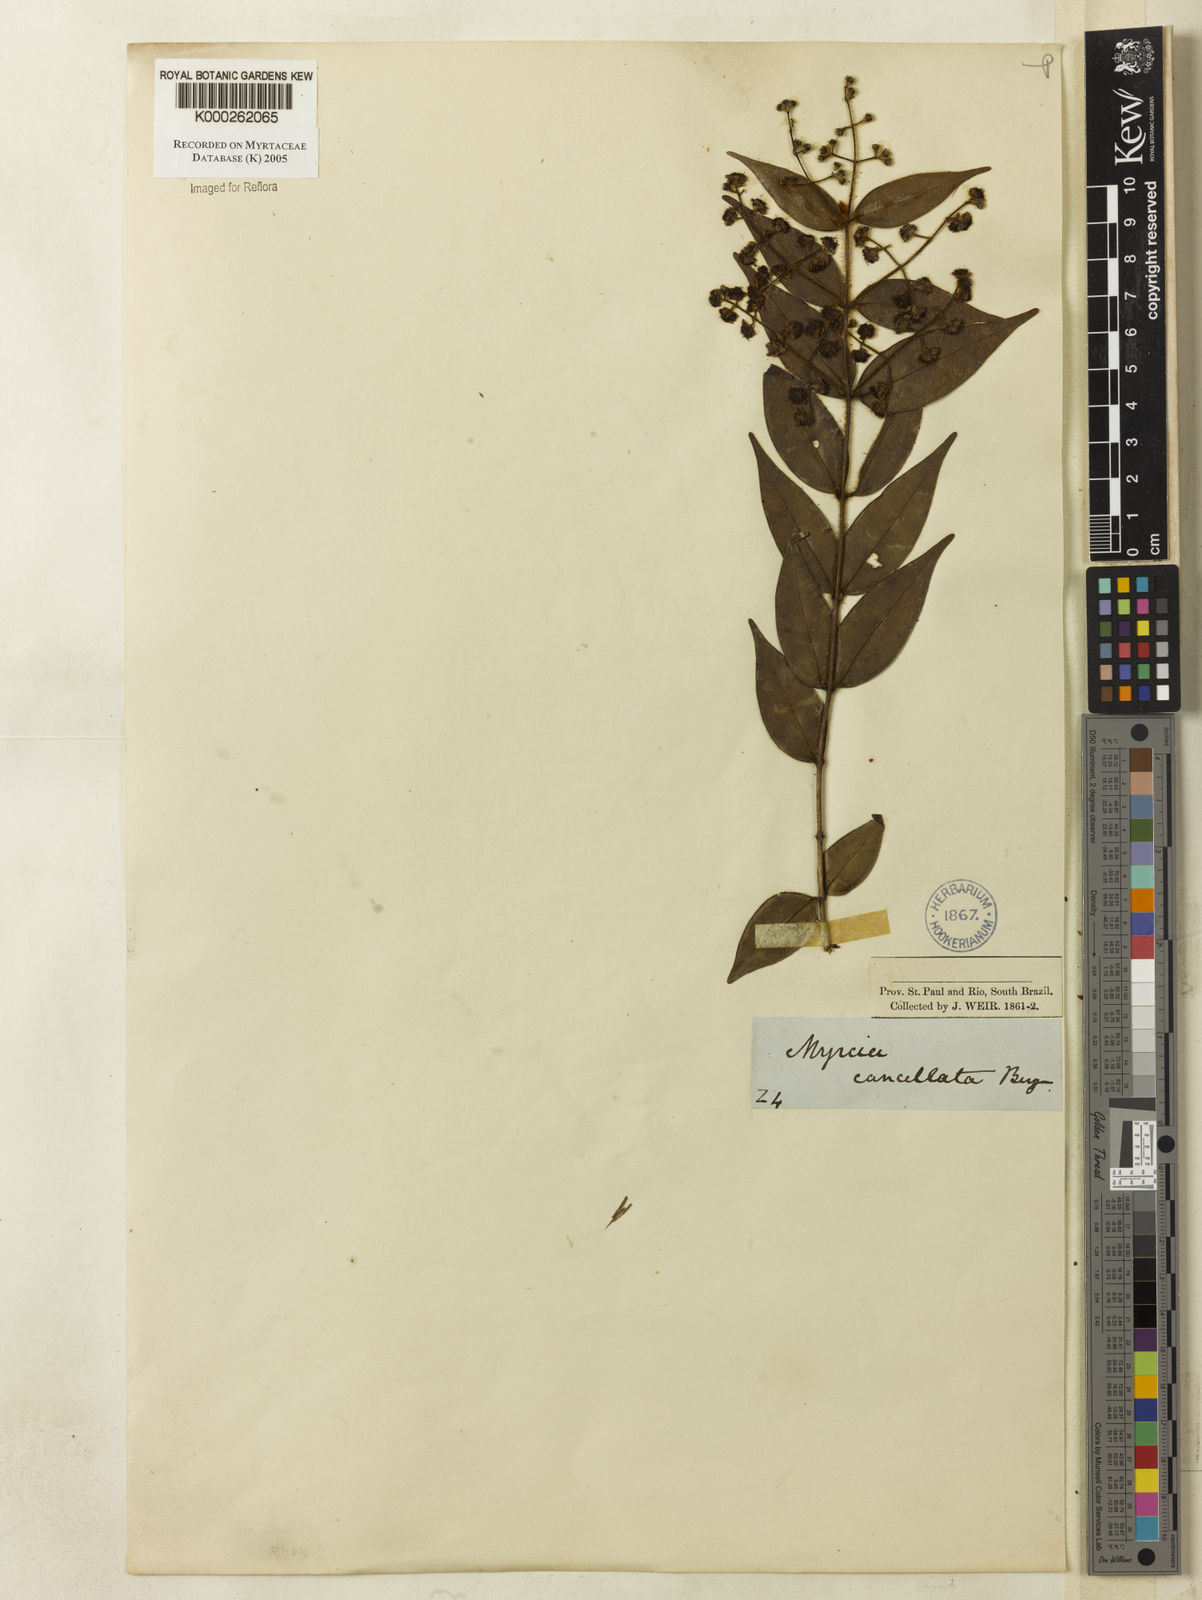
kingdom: Plantae
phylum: Tracheophyta
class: Magnoliopsida
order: Myrtales
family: Myrtaceae
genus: Myrcia
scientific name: Myrcia cancellata
